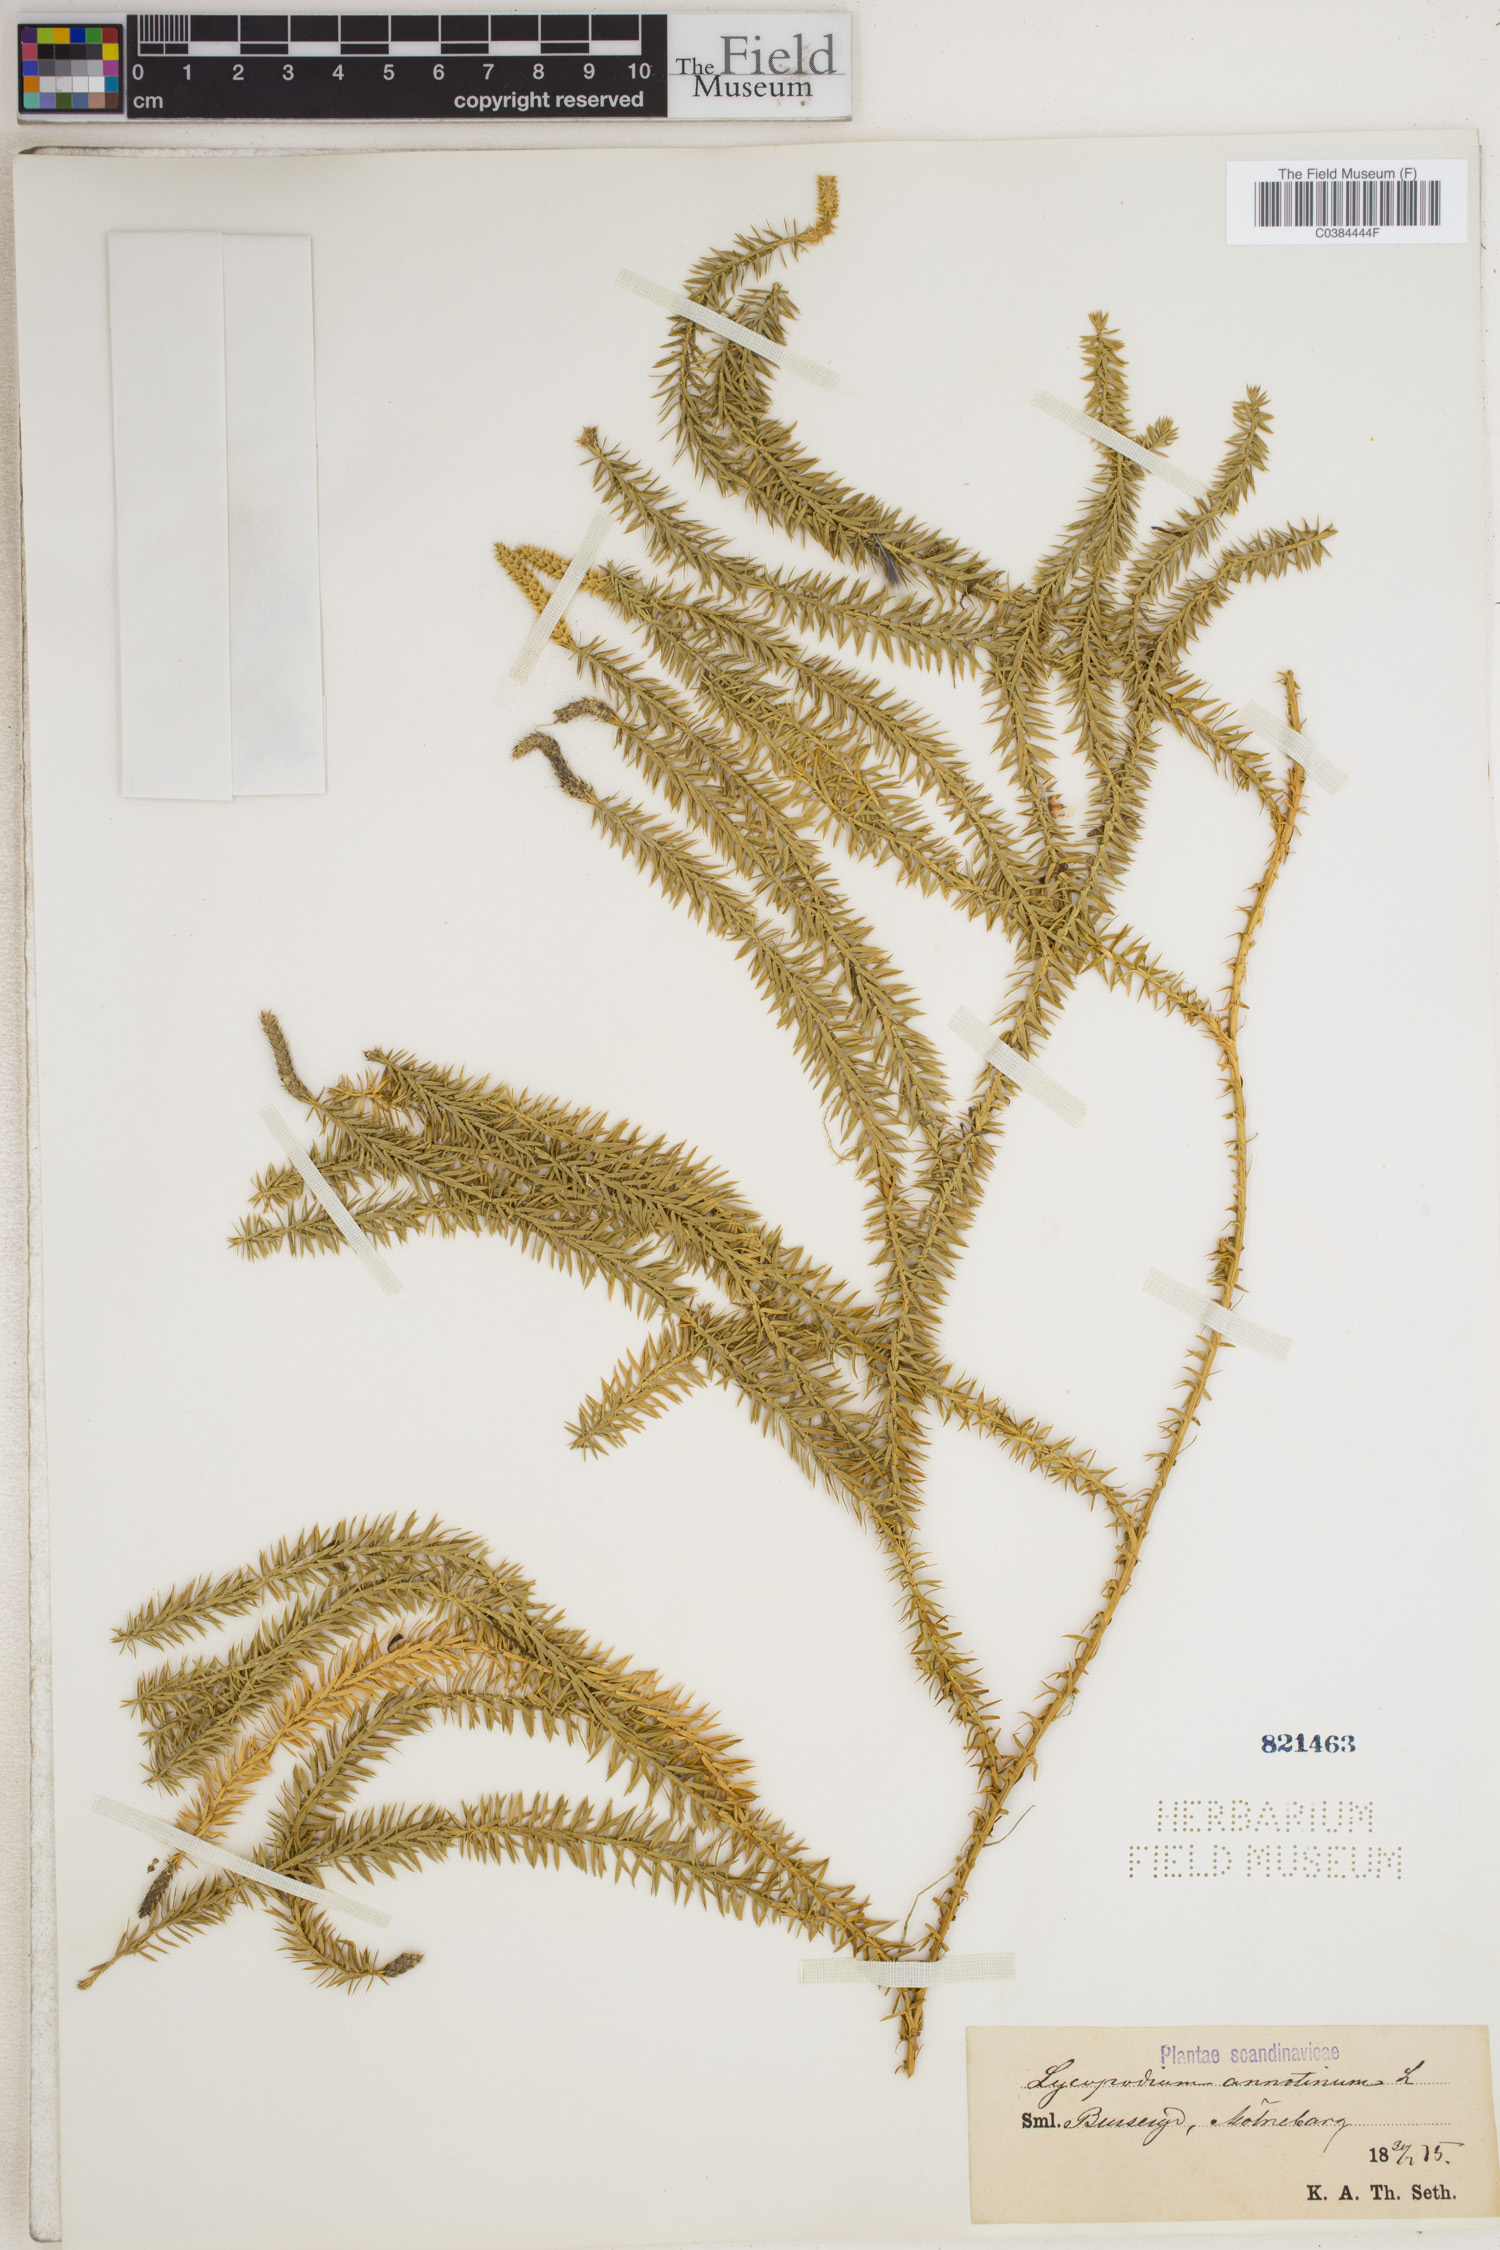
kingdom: Plantae
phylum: Tracheophyta
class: Lycopodiopsida
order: Lycopodiales
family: Lycopodiaceae
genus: Spinulum
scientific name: Spinulum annotinum
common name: Interrupted club-moss
